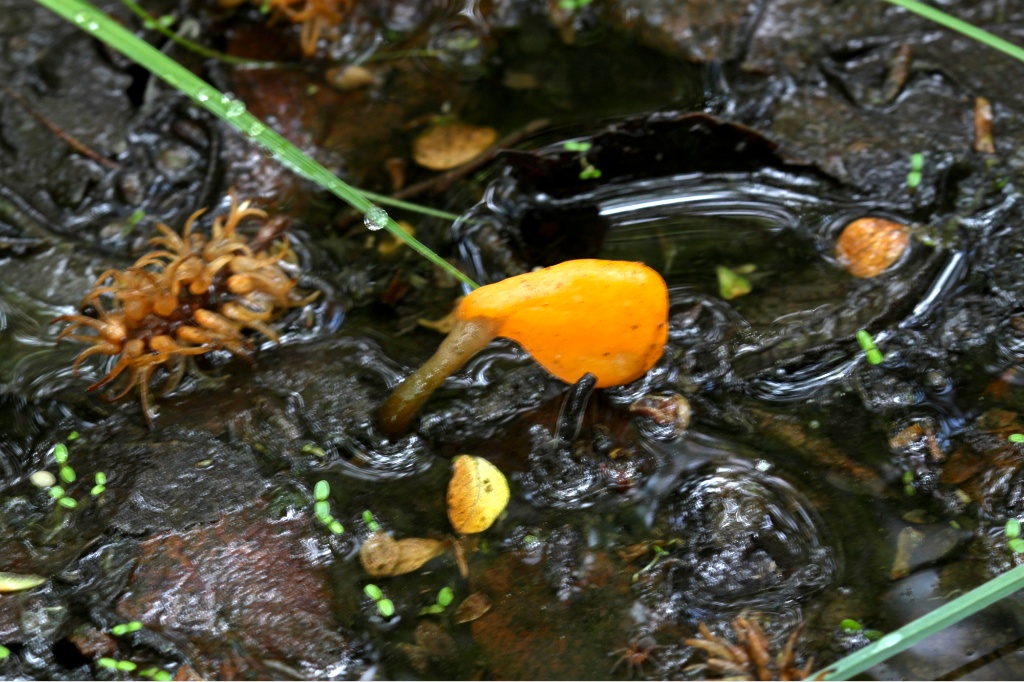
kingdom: Fungi
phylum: Ascomycota
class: Leotiomycetes
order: Helotiales
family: Cenangiaceae
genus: Mitrula
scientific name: Mitrula paludosa
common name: gul nøkketunge
